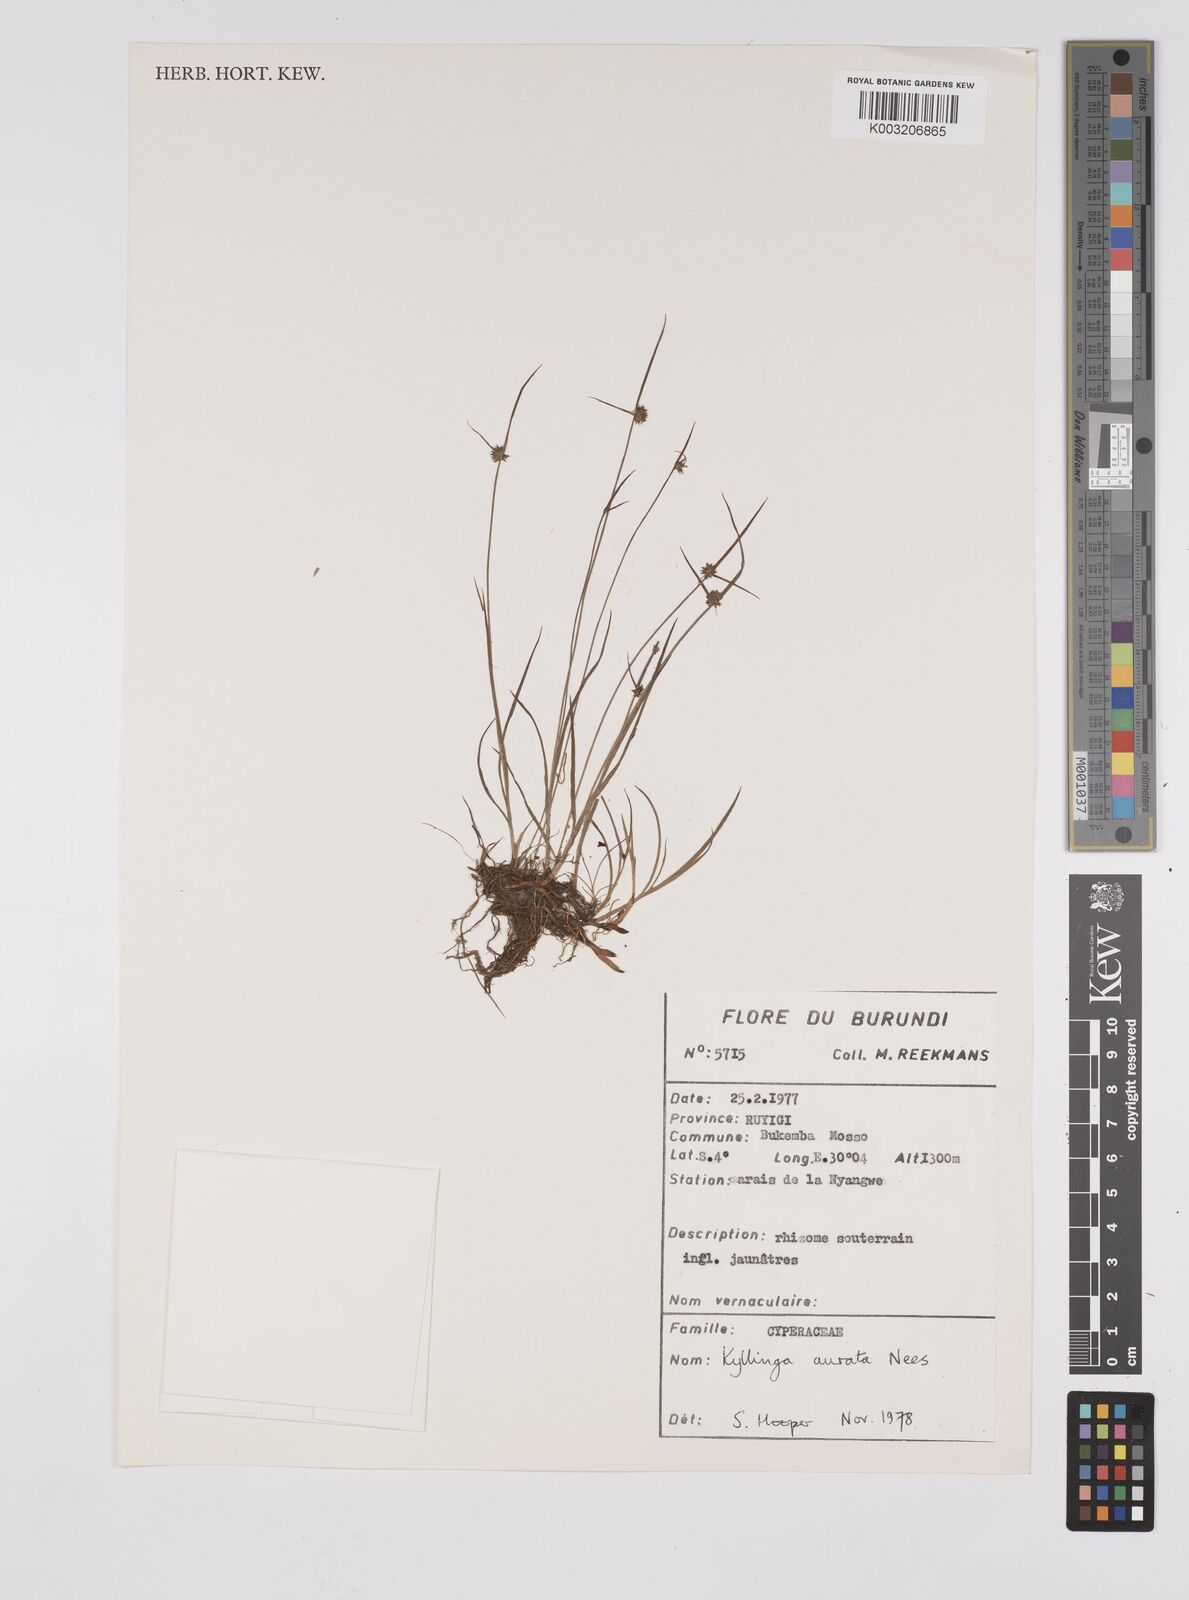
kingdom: Plantae
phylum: Tracheophyta
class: Liliopsida
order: Poales
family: Cyperaceae
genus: Cyperus
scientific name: Cyperus erectus
